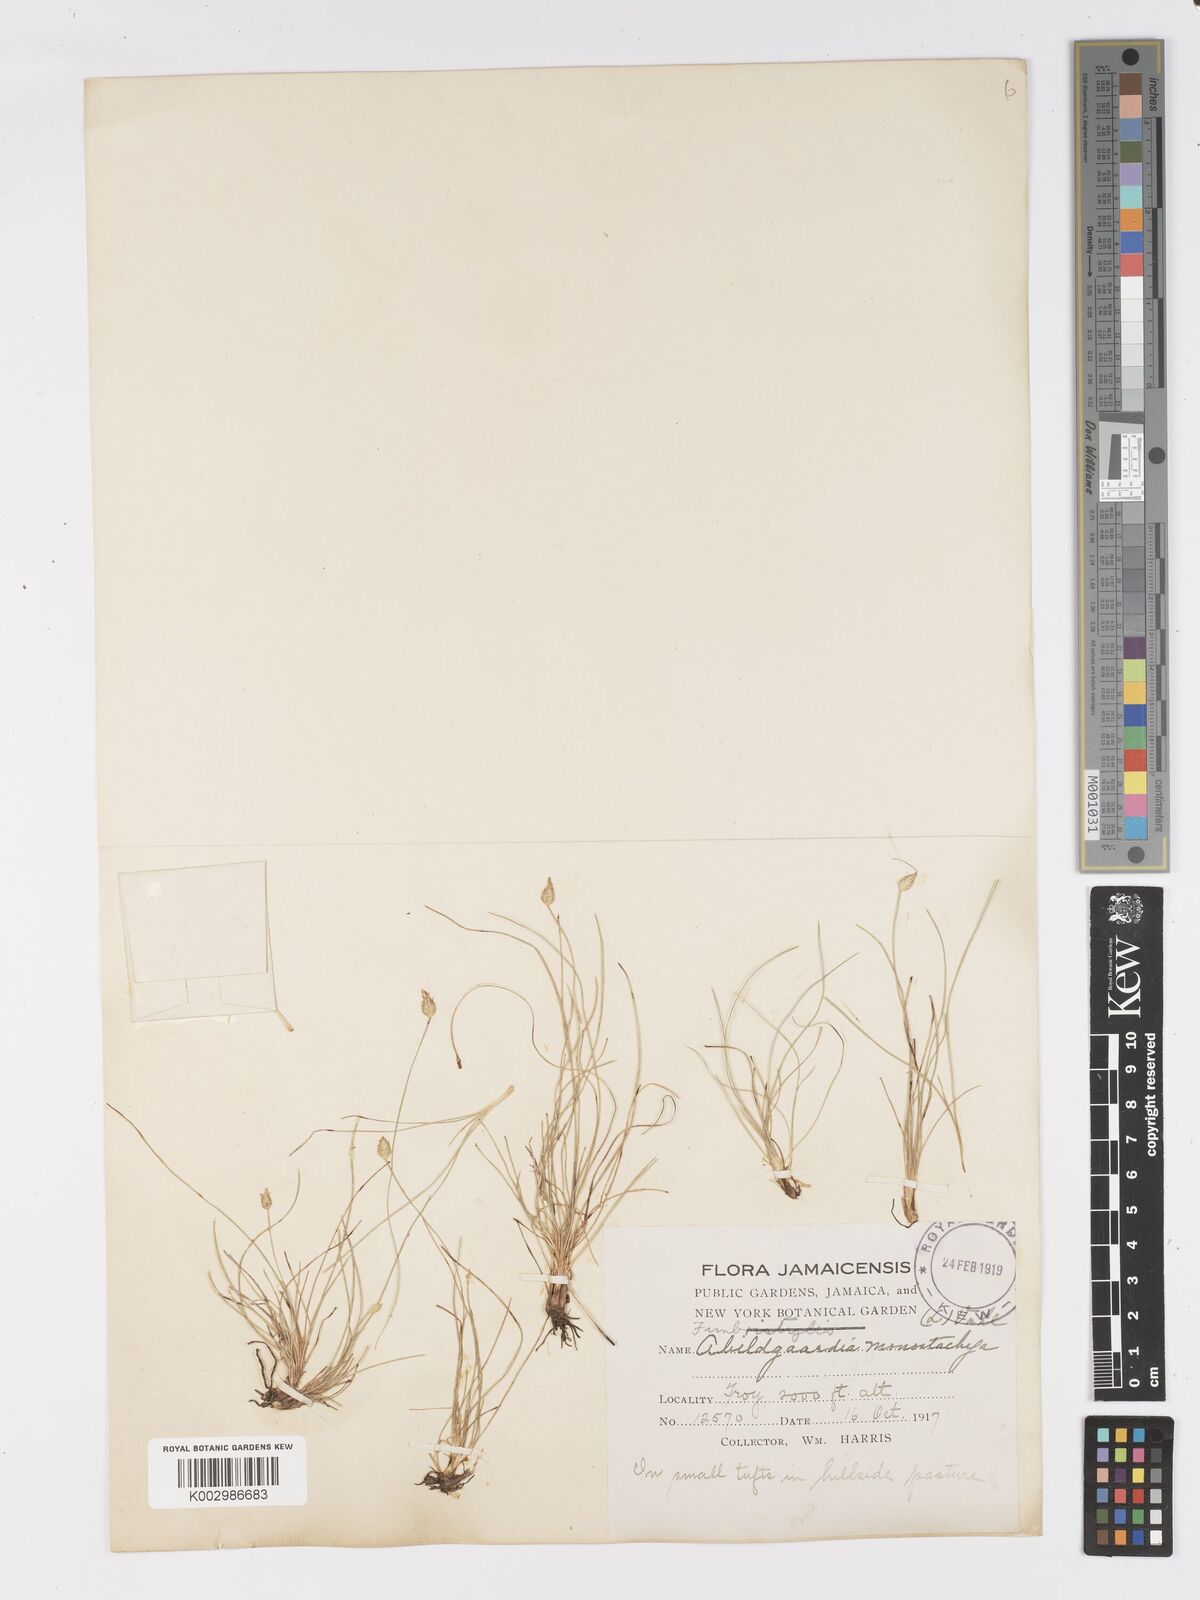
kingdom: Plantae
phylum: Tracheophyta
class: Liliopsida
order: Poales
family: Cyperaceae
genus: Abildgaardia
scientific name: Abildgaardia ovata
